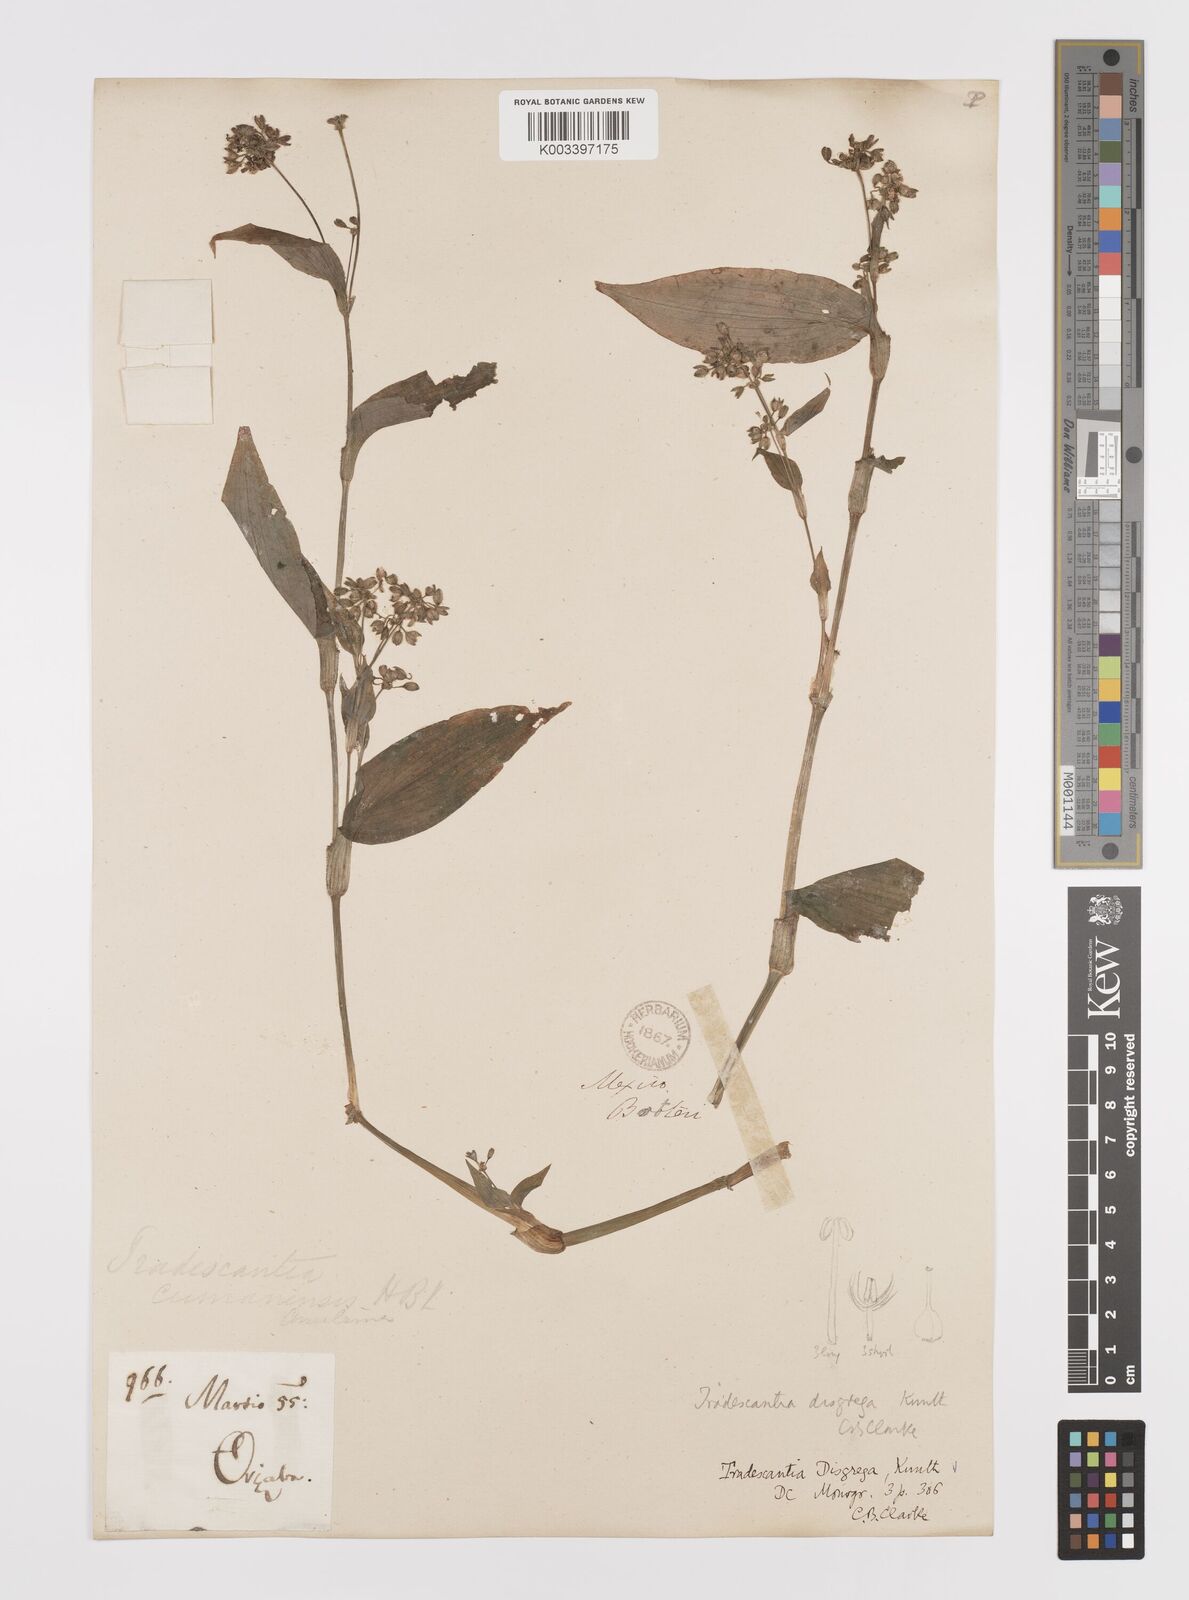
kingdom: Plantae
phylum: Tracheophyta
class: Liliopsida
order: Commelinales
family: Commelinaceae
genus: Callisia
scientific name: Callisia disgrega
